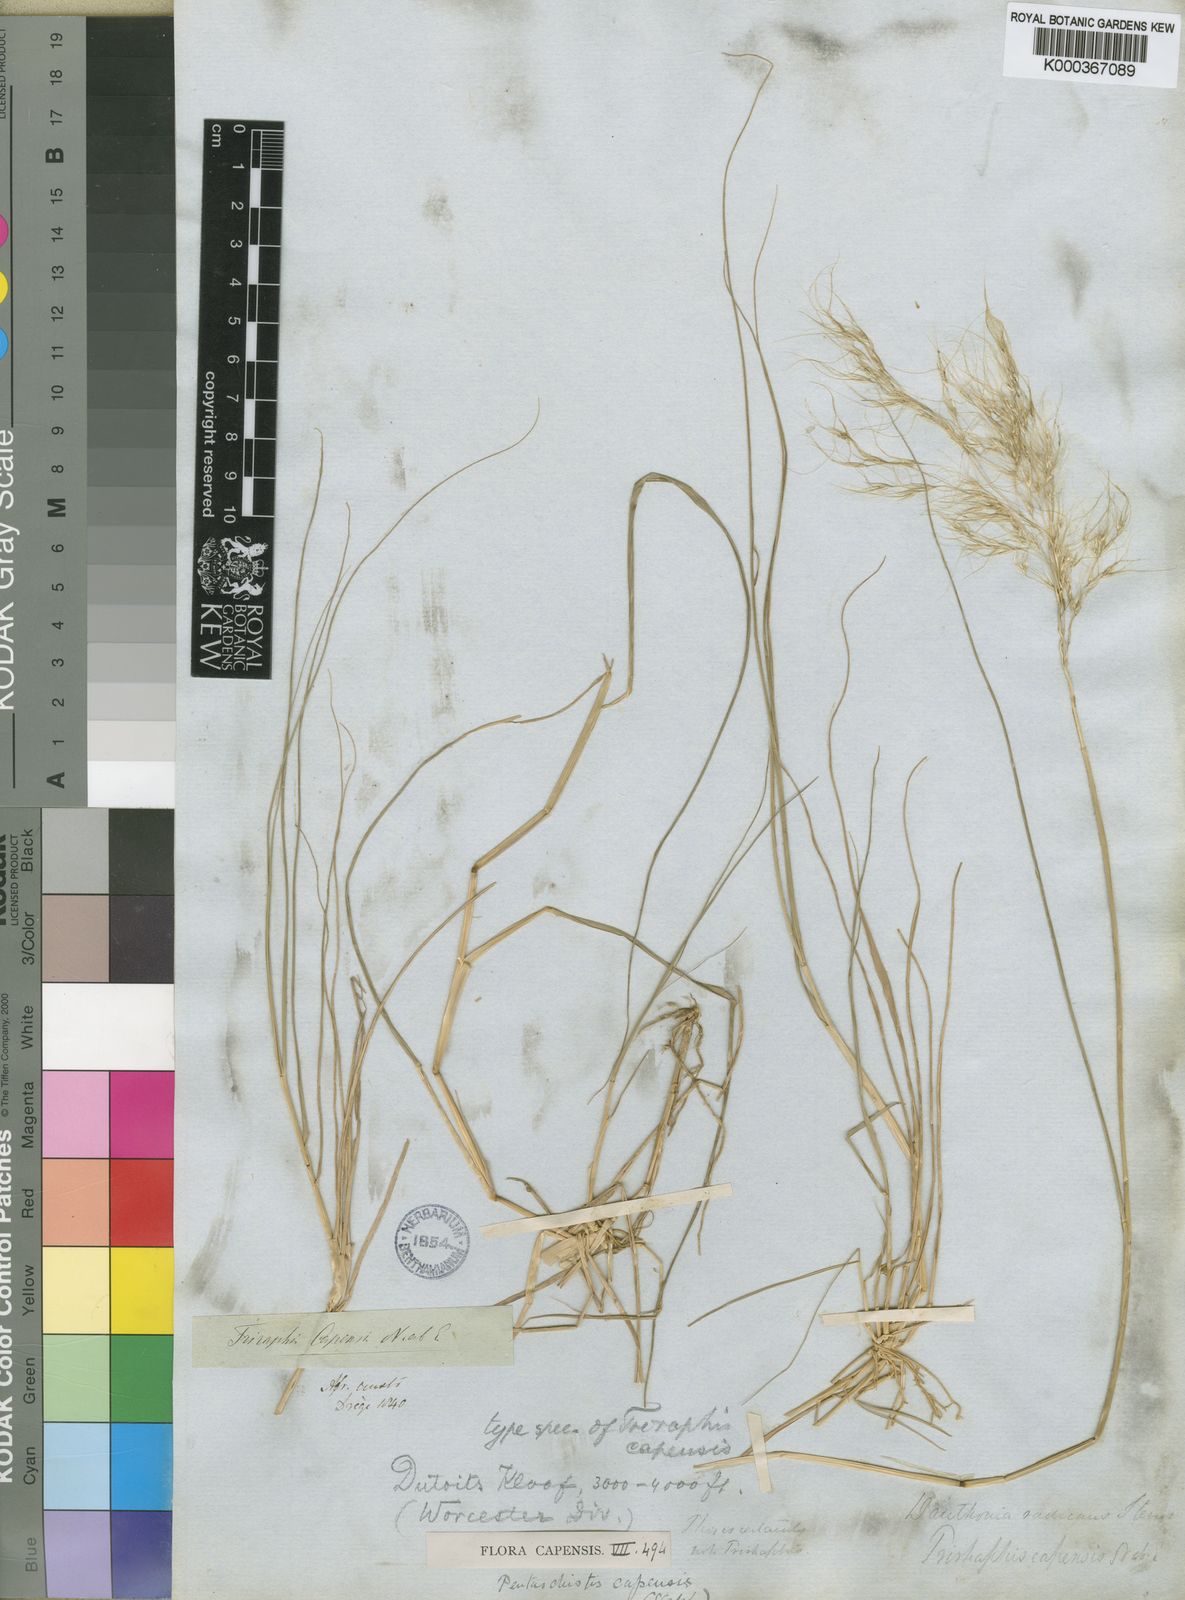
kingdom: Plantae
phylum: Tracheophyta
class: Liliopsida
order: Poales
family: Poaceae
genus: Pentameris
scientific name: Pentameris capensis
